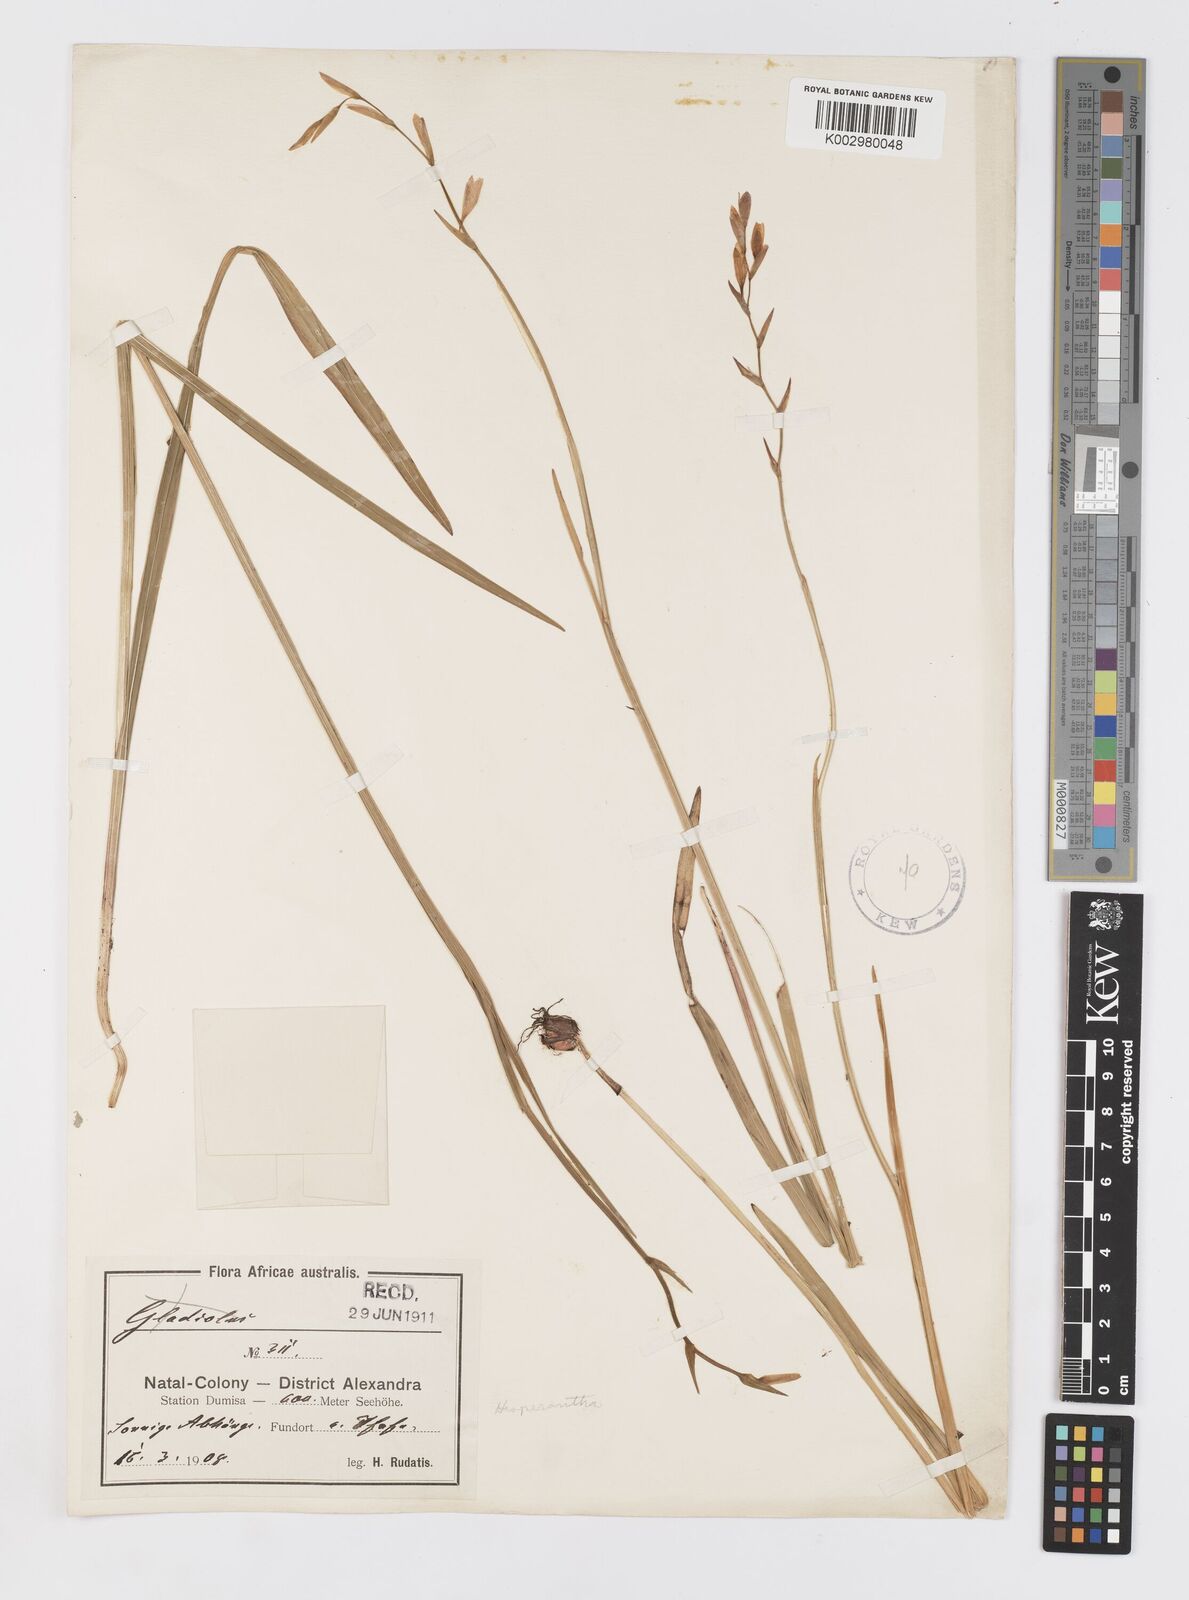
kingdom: Plantae
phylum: Tracheophyta
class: Liliopsida
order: Asparagales
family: Iridaceae
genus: Hesperantha
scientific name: Hesperantha baurii
